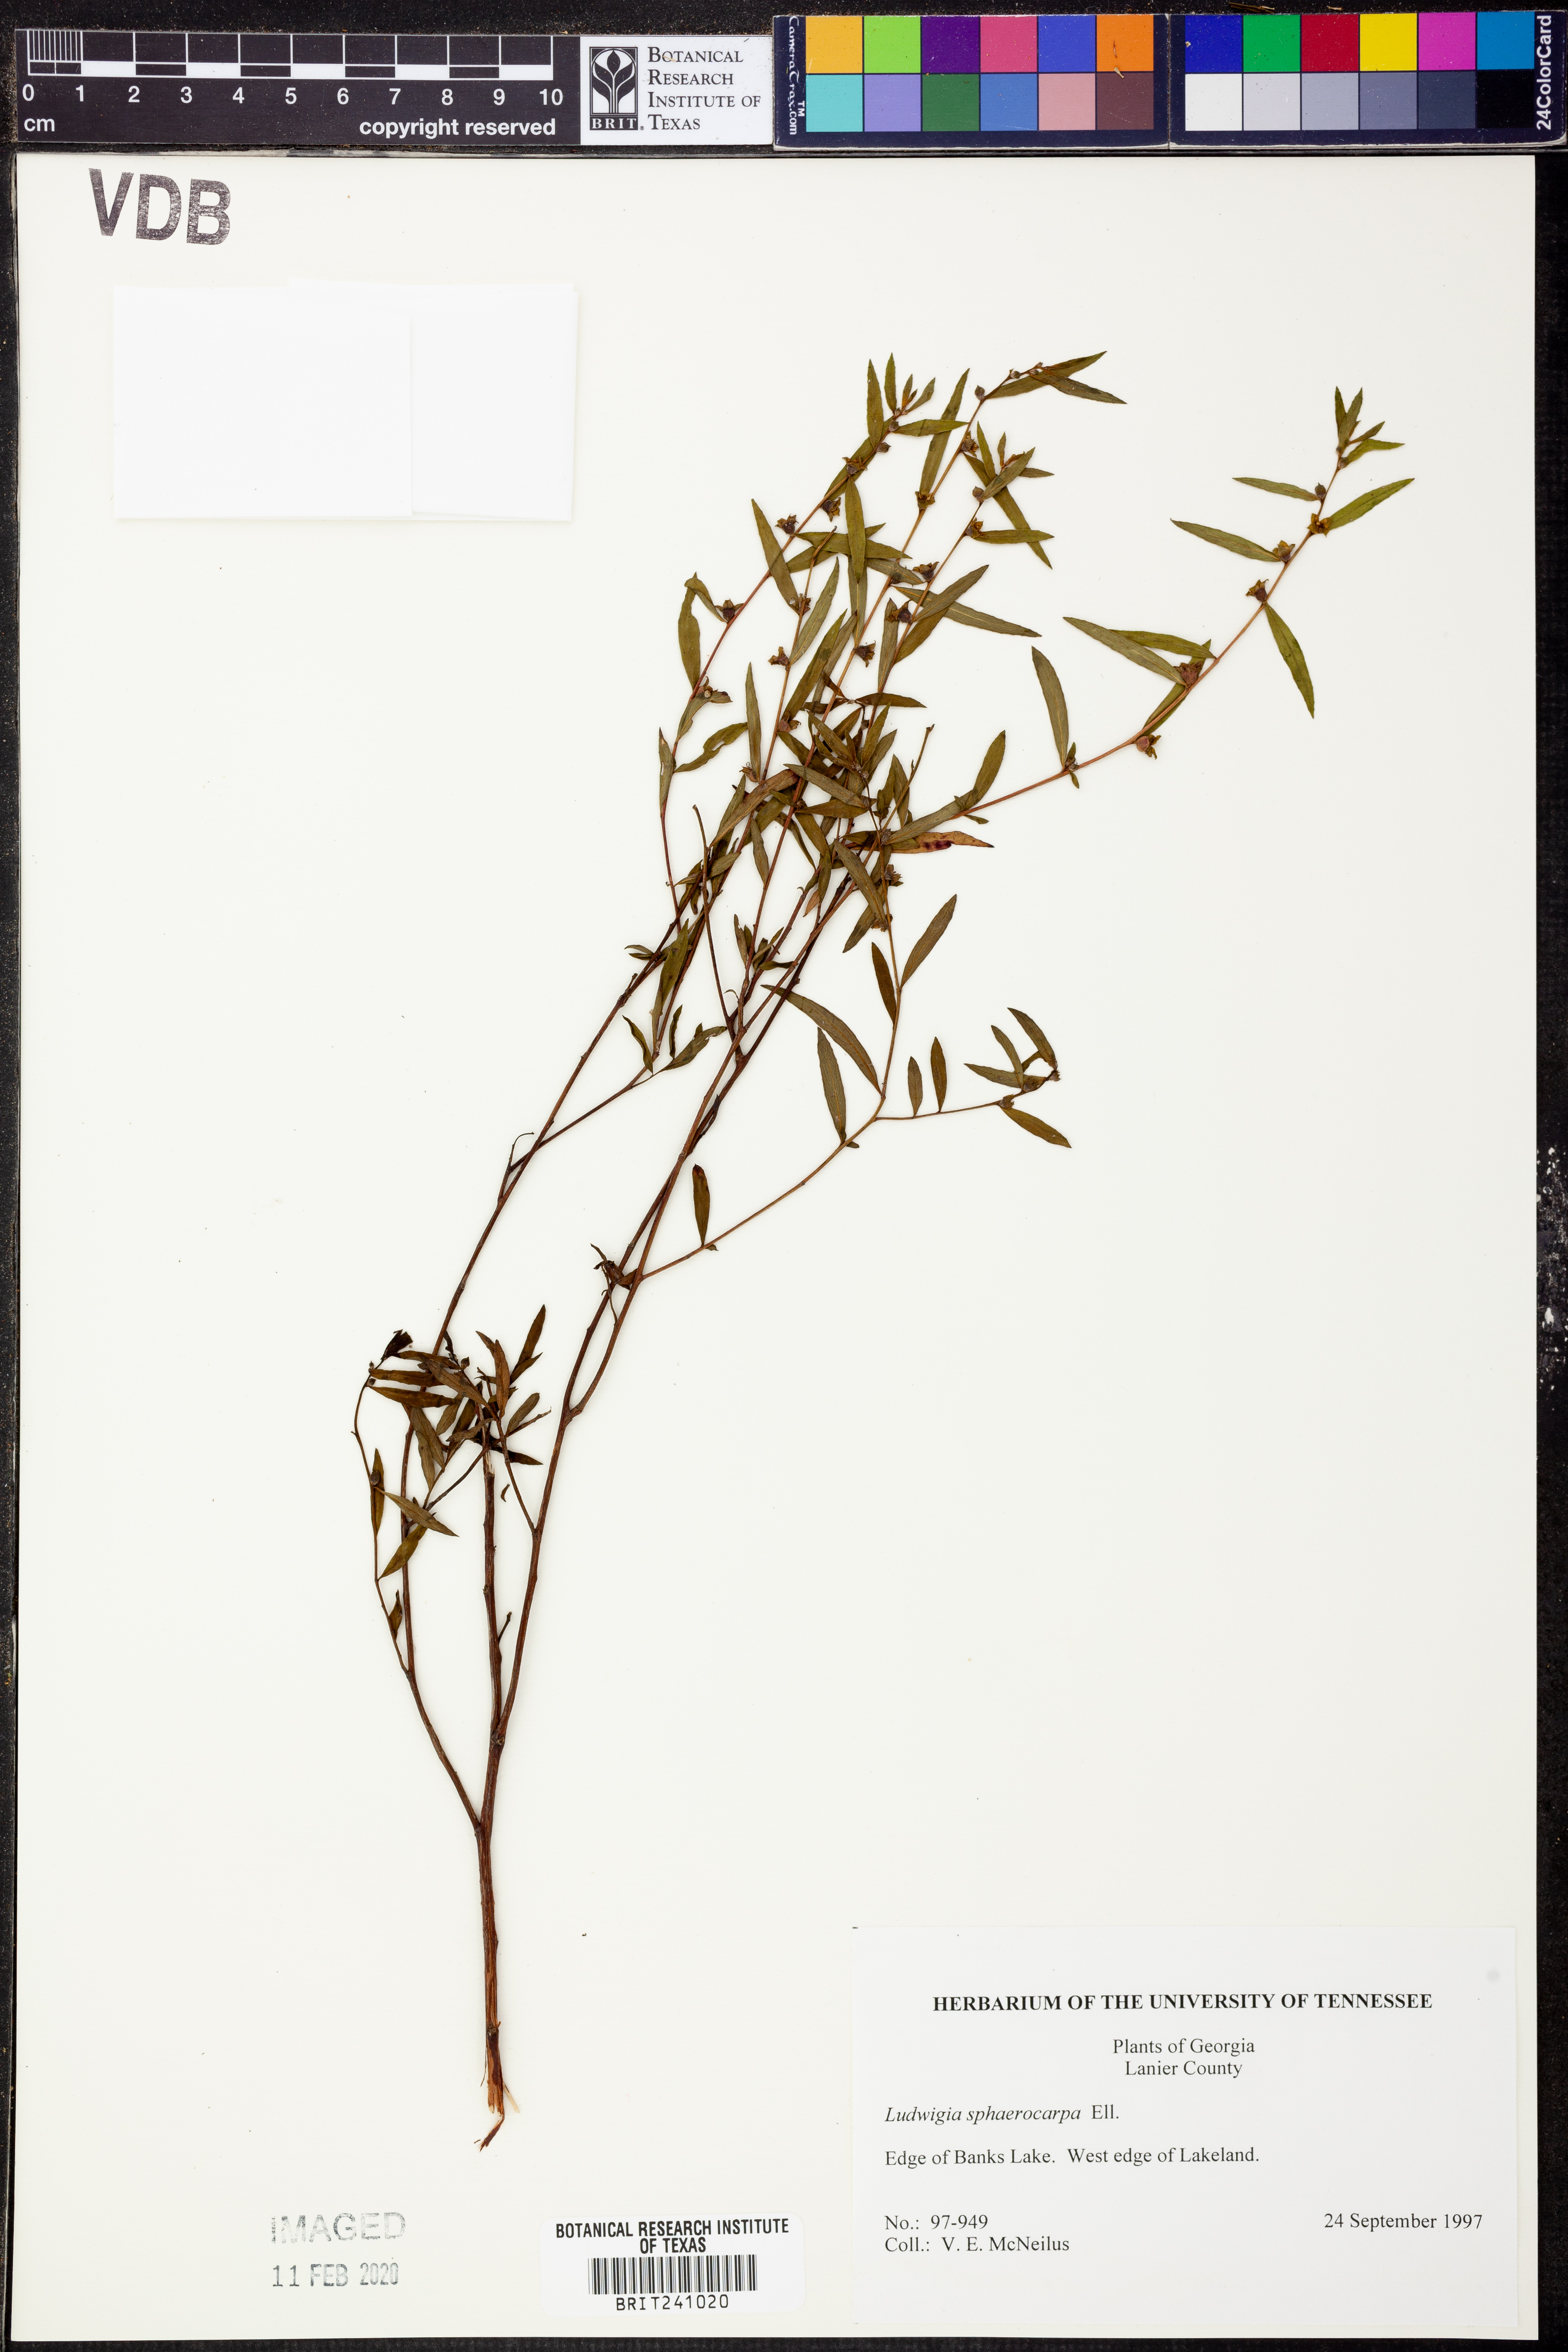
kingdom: Plantae
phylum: Tracheophyta
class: Magnoliopsida
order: Myrtales
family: Onagraceae
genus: Ludwigia
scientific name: Ludwigia sphaerocarpa
